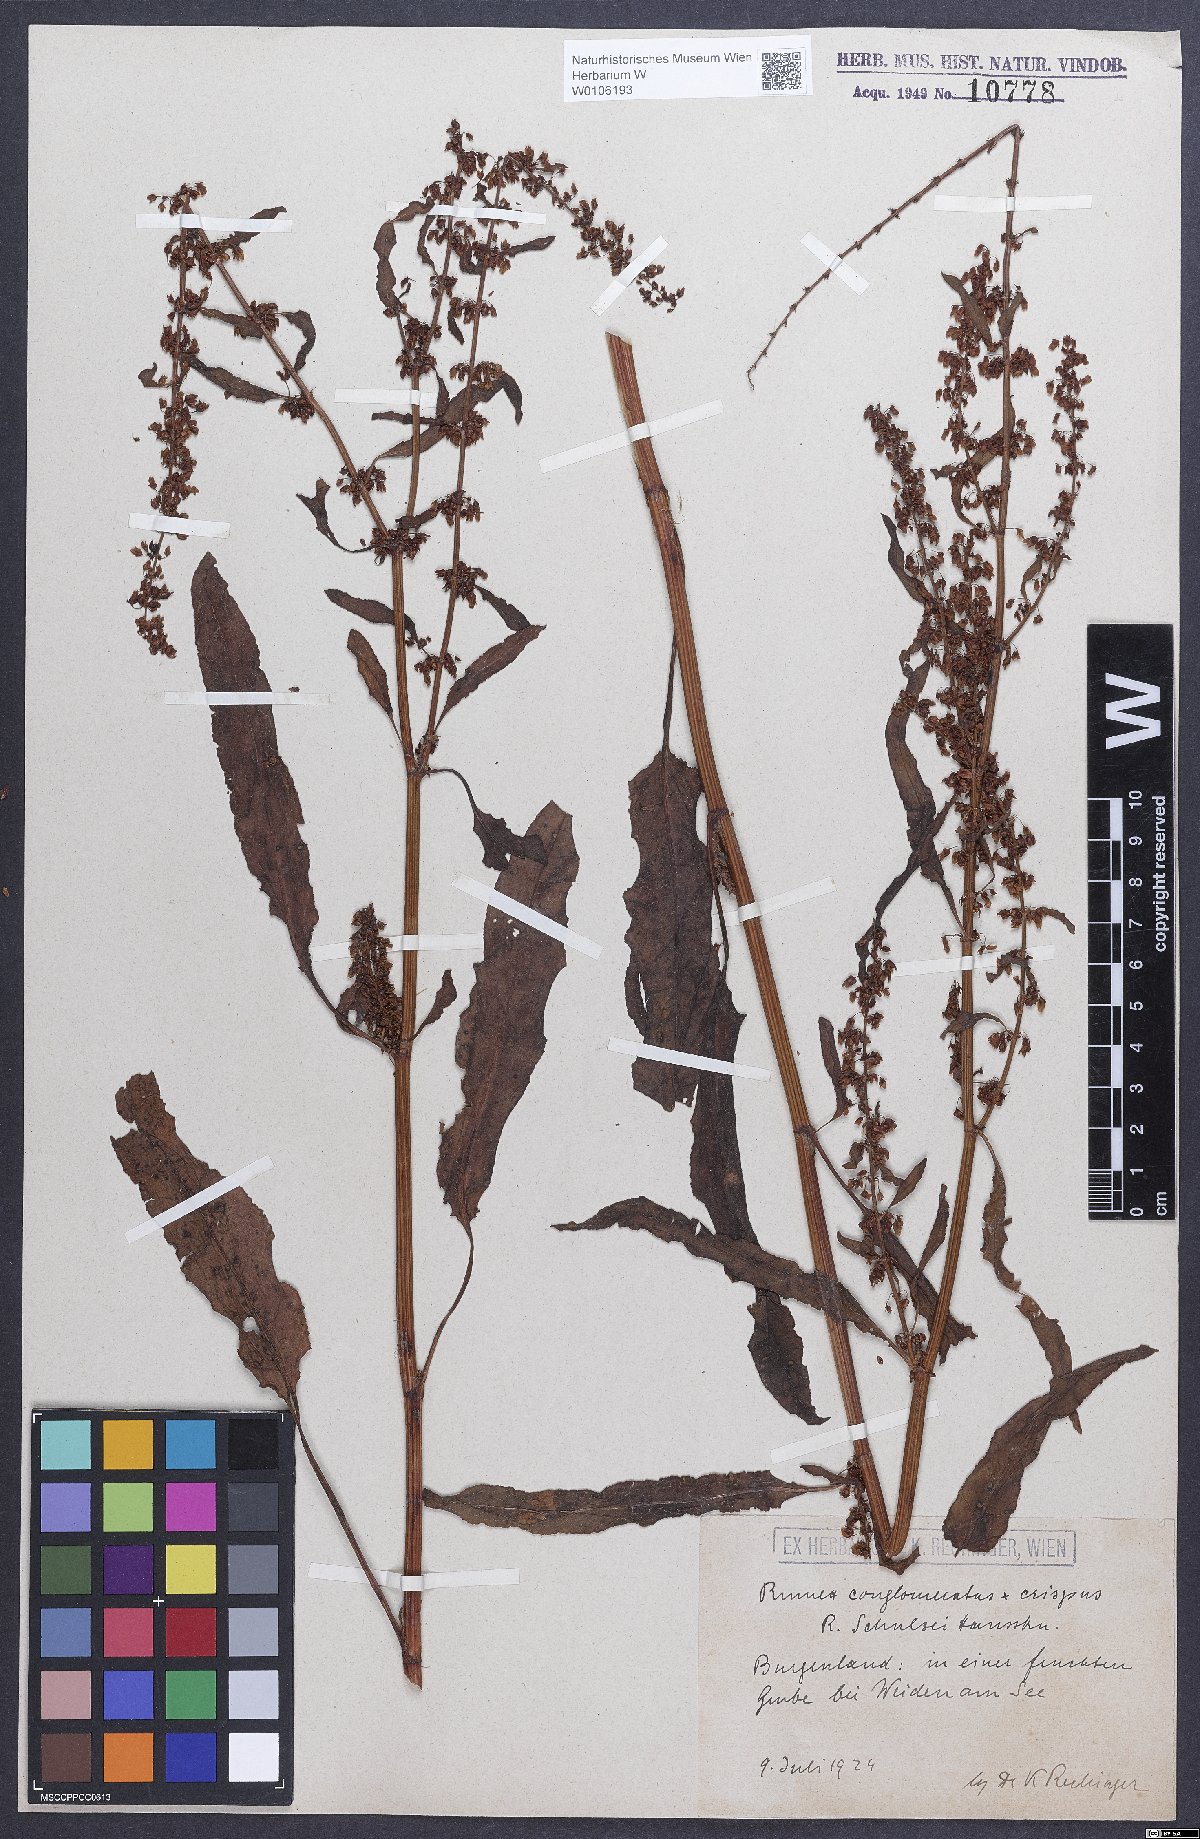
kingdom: Plantae
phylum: Tracheophyta
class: Magnoliopsida
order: Caryophyllales
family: Polygonaceae
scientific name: Polygonaceae
